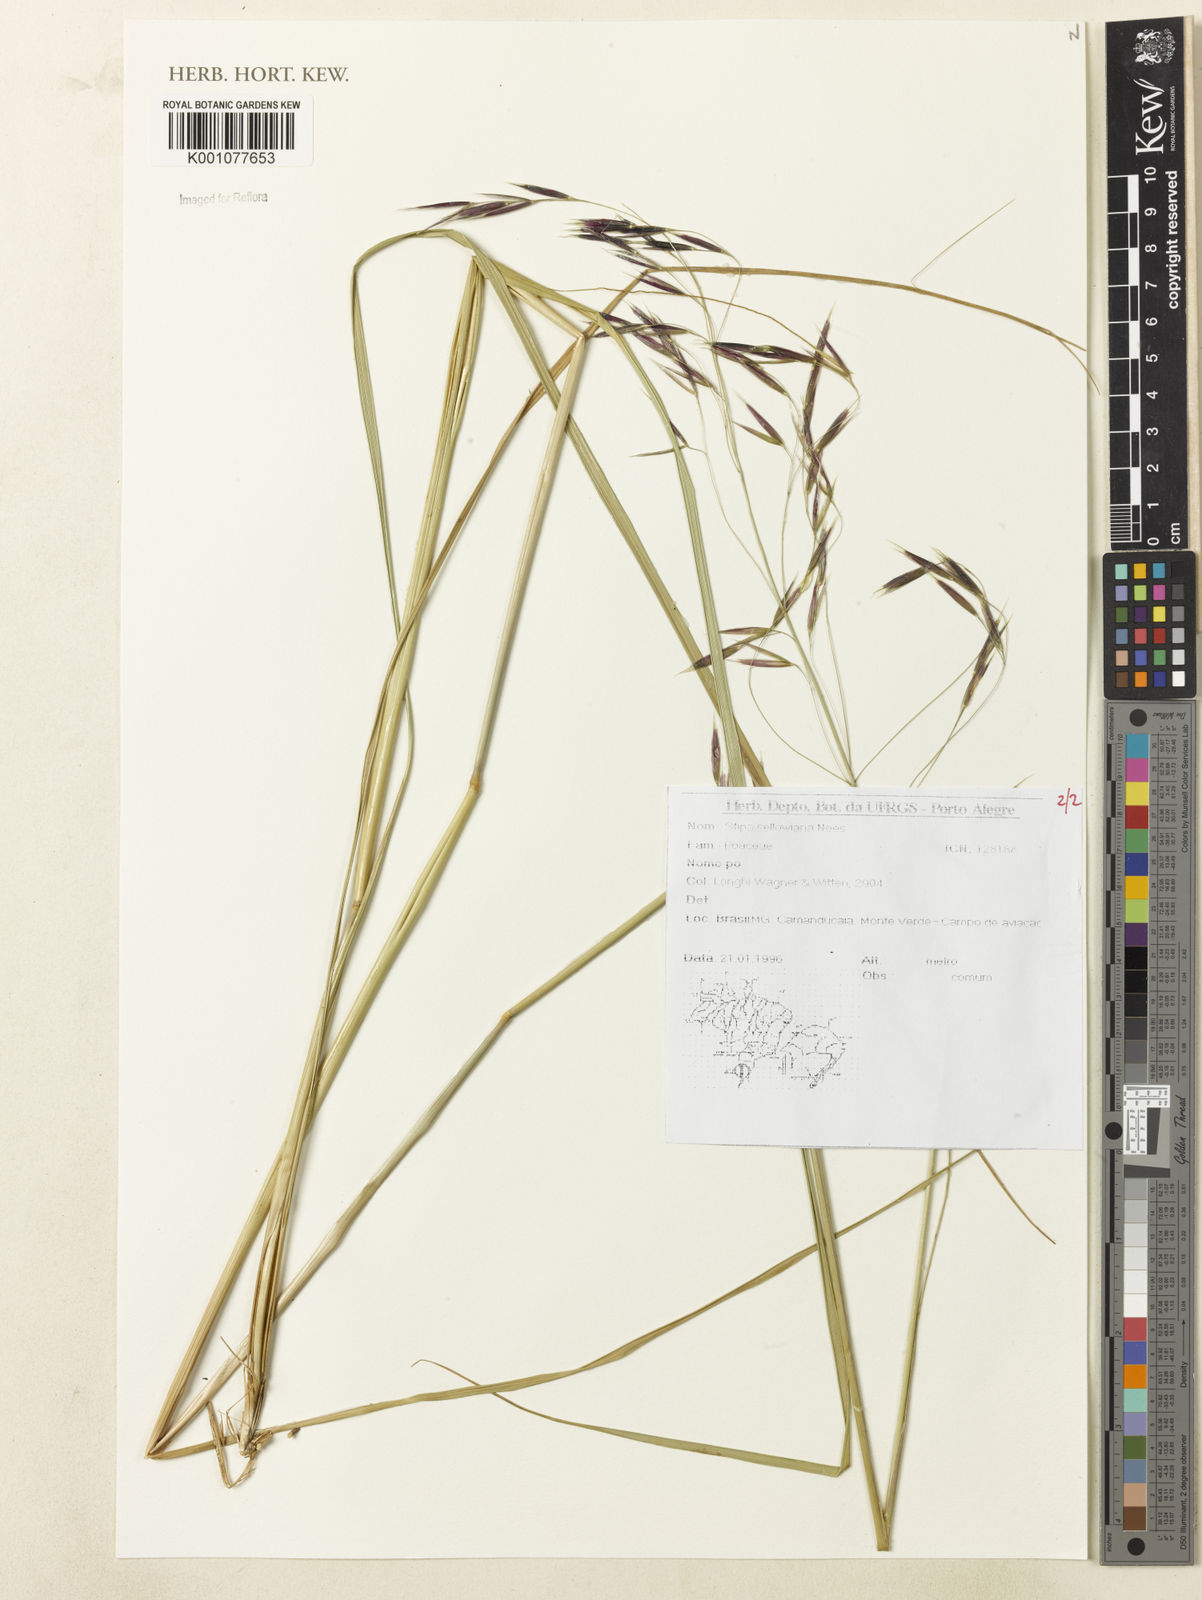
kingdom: Plantae
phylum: Tracheophyta
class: Liliopsida
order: Poales
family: Poaceae
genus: Nassella
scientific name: Nassella
